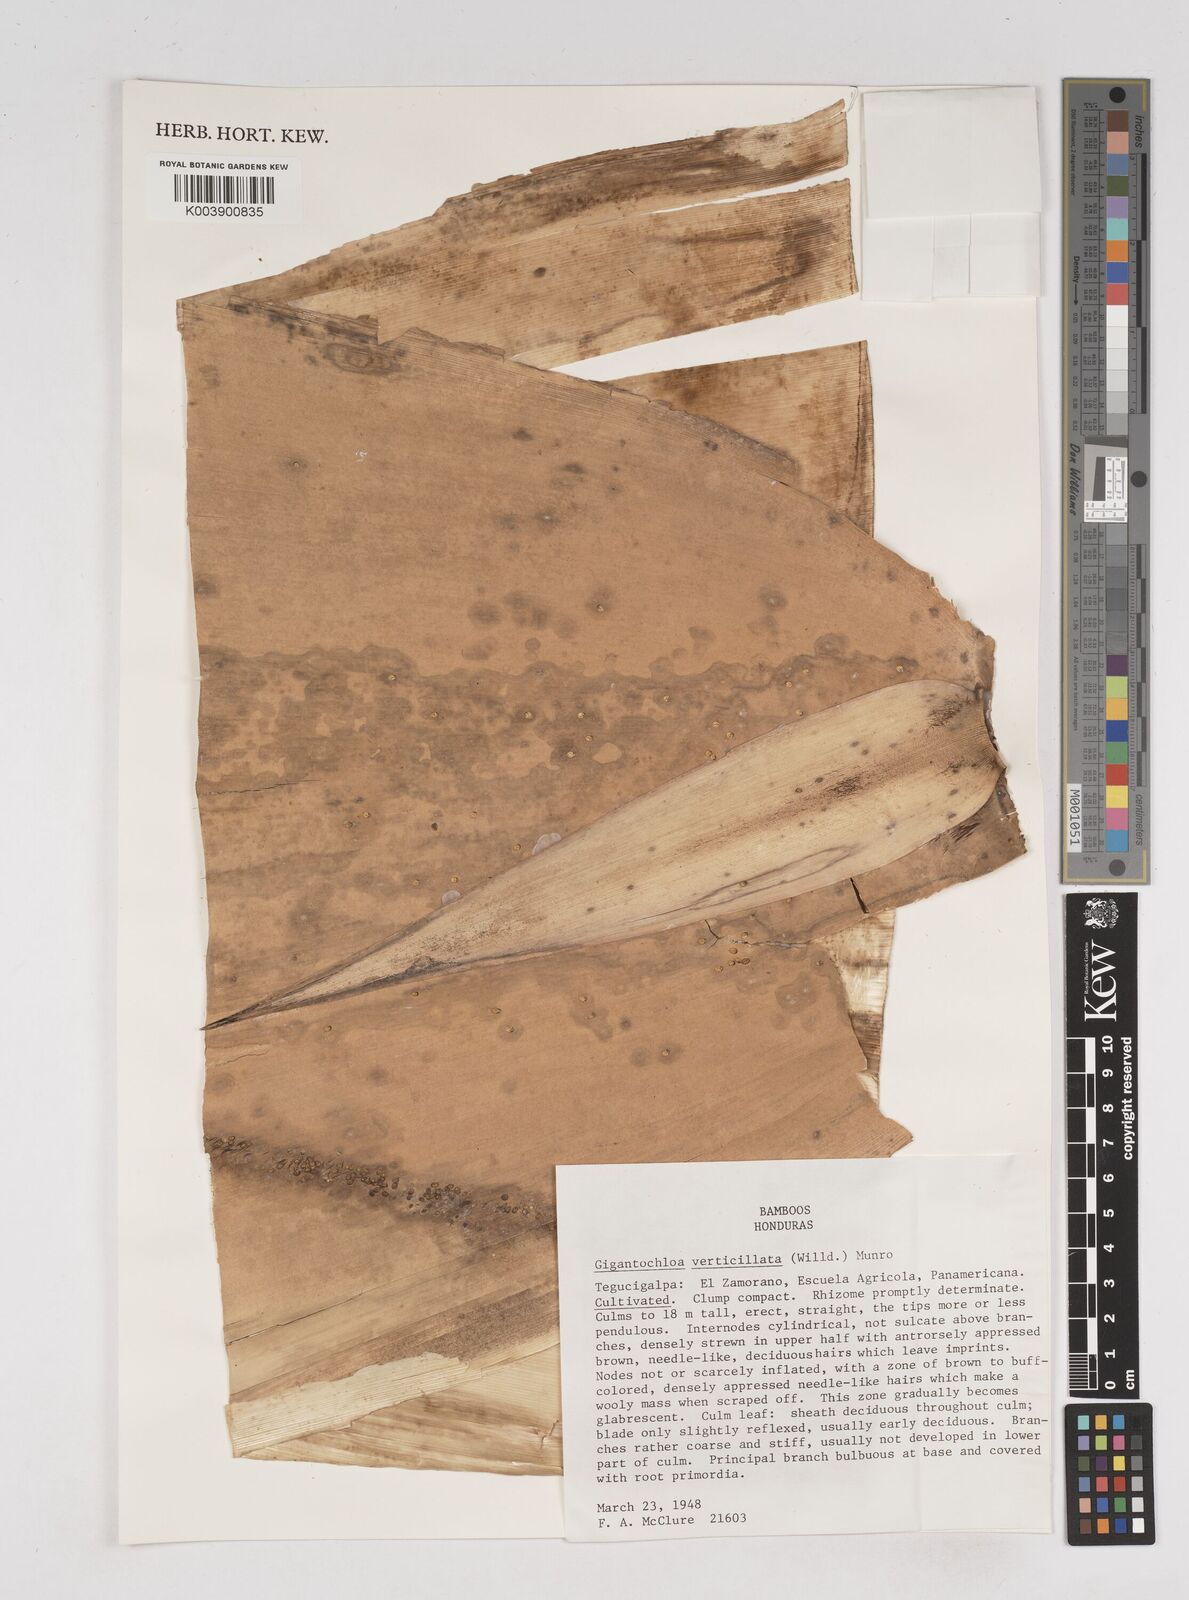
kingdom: Plantae
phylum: Tracheophyta
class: Liliopsida
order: Poales
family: Poaceae
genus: Gigantochloa
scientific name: Gigantochloa verticillata
